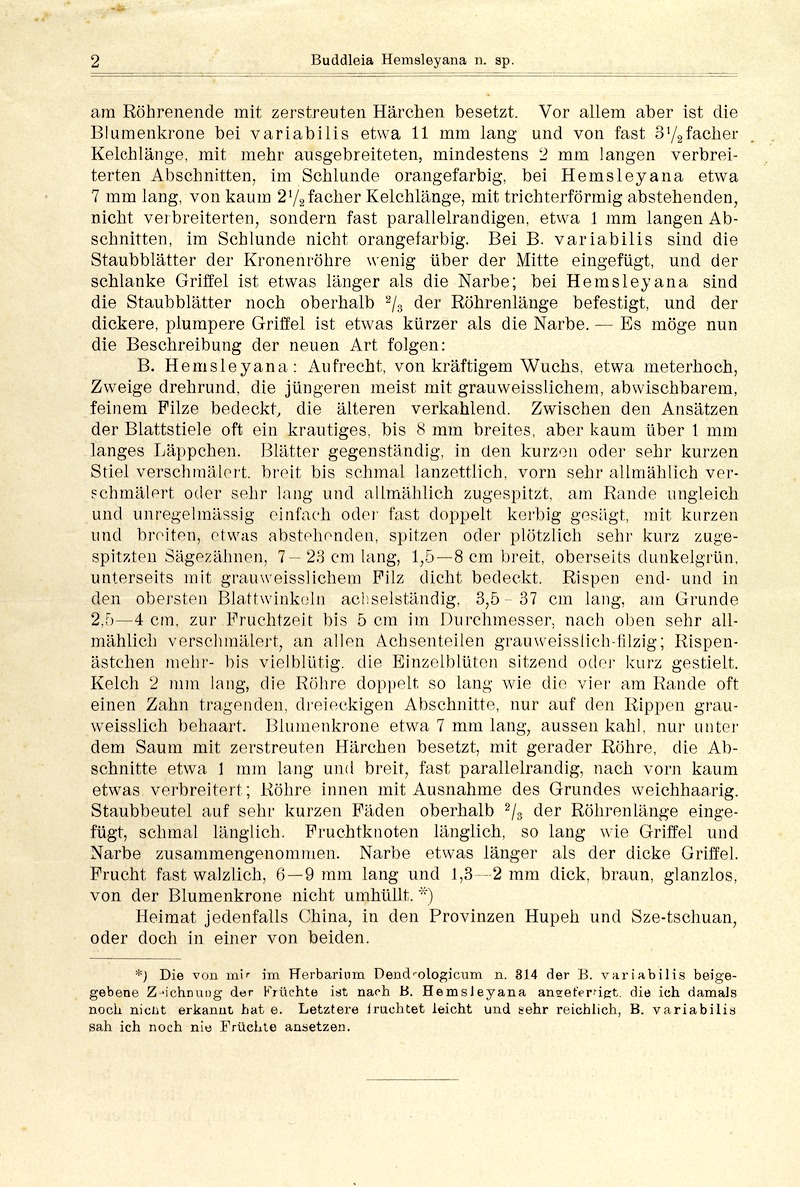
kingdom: Plantae
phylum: Tracheophyta
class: Magnoliopsida
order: Lamiales
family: Scrophulariaceae
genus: Buddleja
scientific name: Buddleja albiflora
